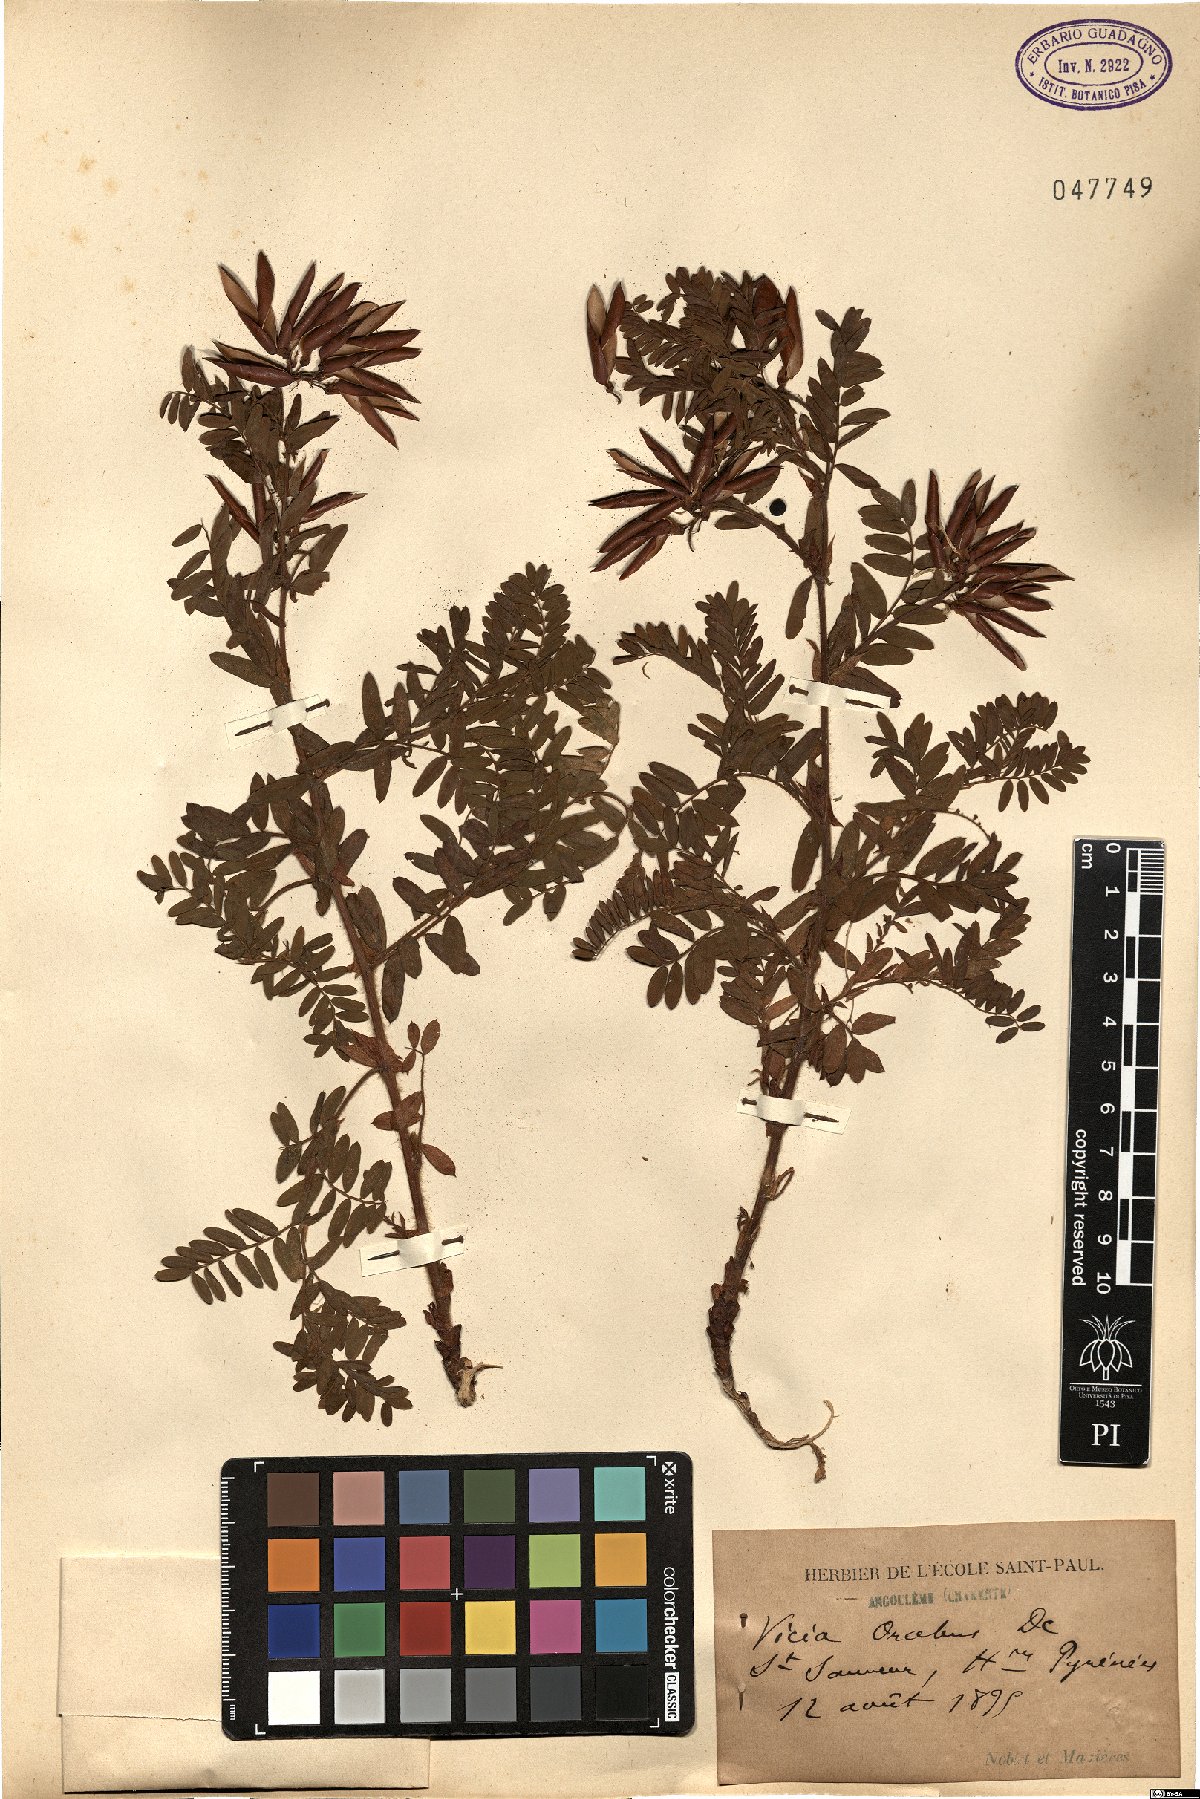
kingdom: Plantae
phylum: Tracheophyta
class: Magnoliopsida
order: Fabales
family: Fabaceae
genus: Vicia
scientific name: Vicia orobus
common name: Wood bitter-vetch
